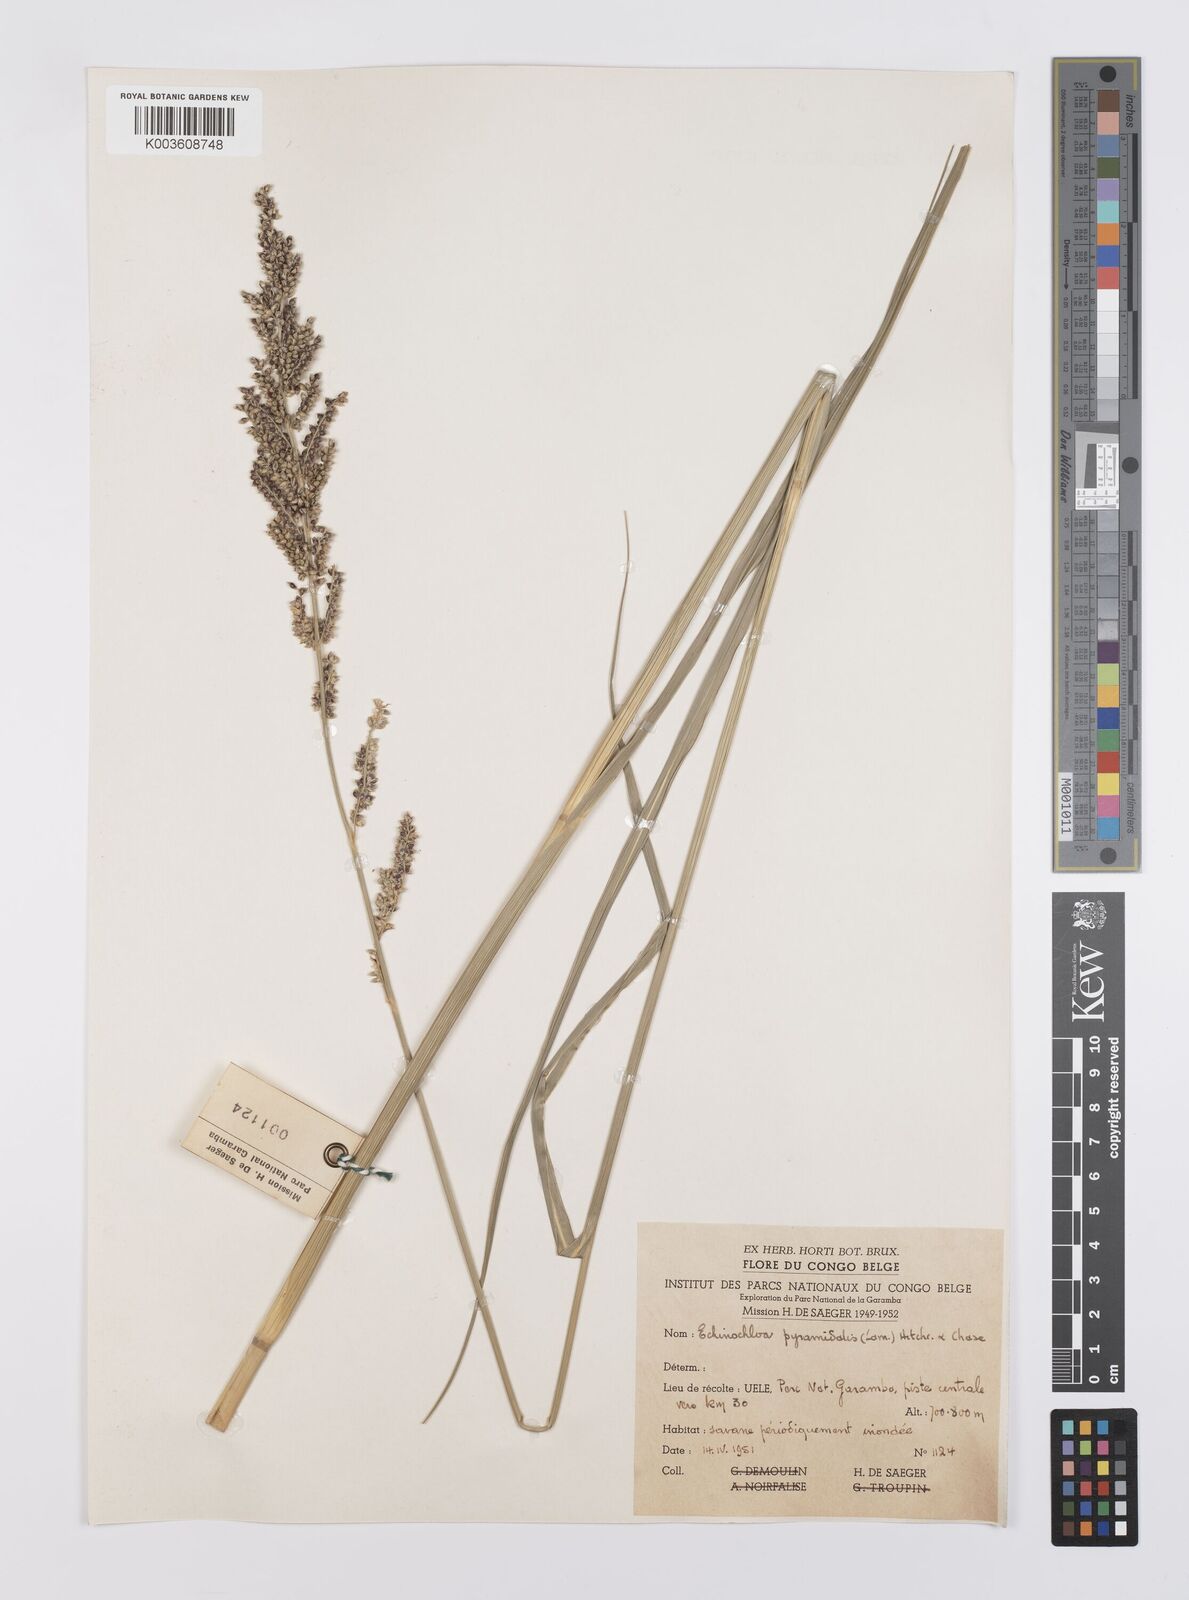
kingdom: Plantae
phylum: Tracheophyta
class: Liliopsida
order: Poales
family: Poaceae
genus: Echinochloa
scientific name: Echinochloa pyramidalis
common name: Antelope grass
